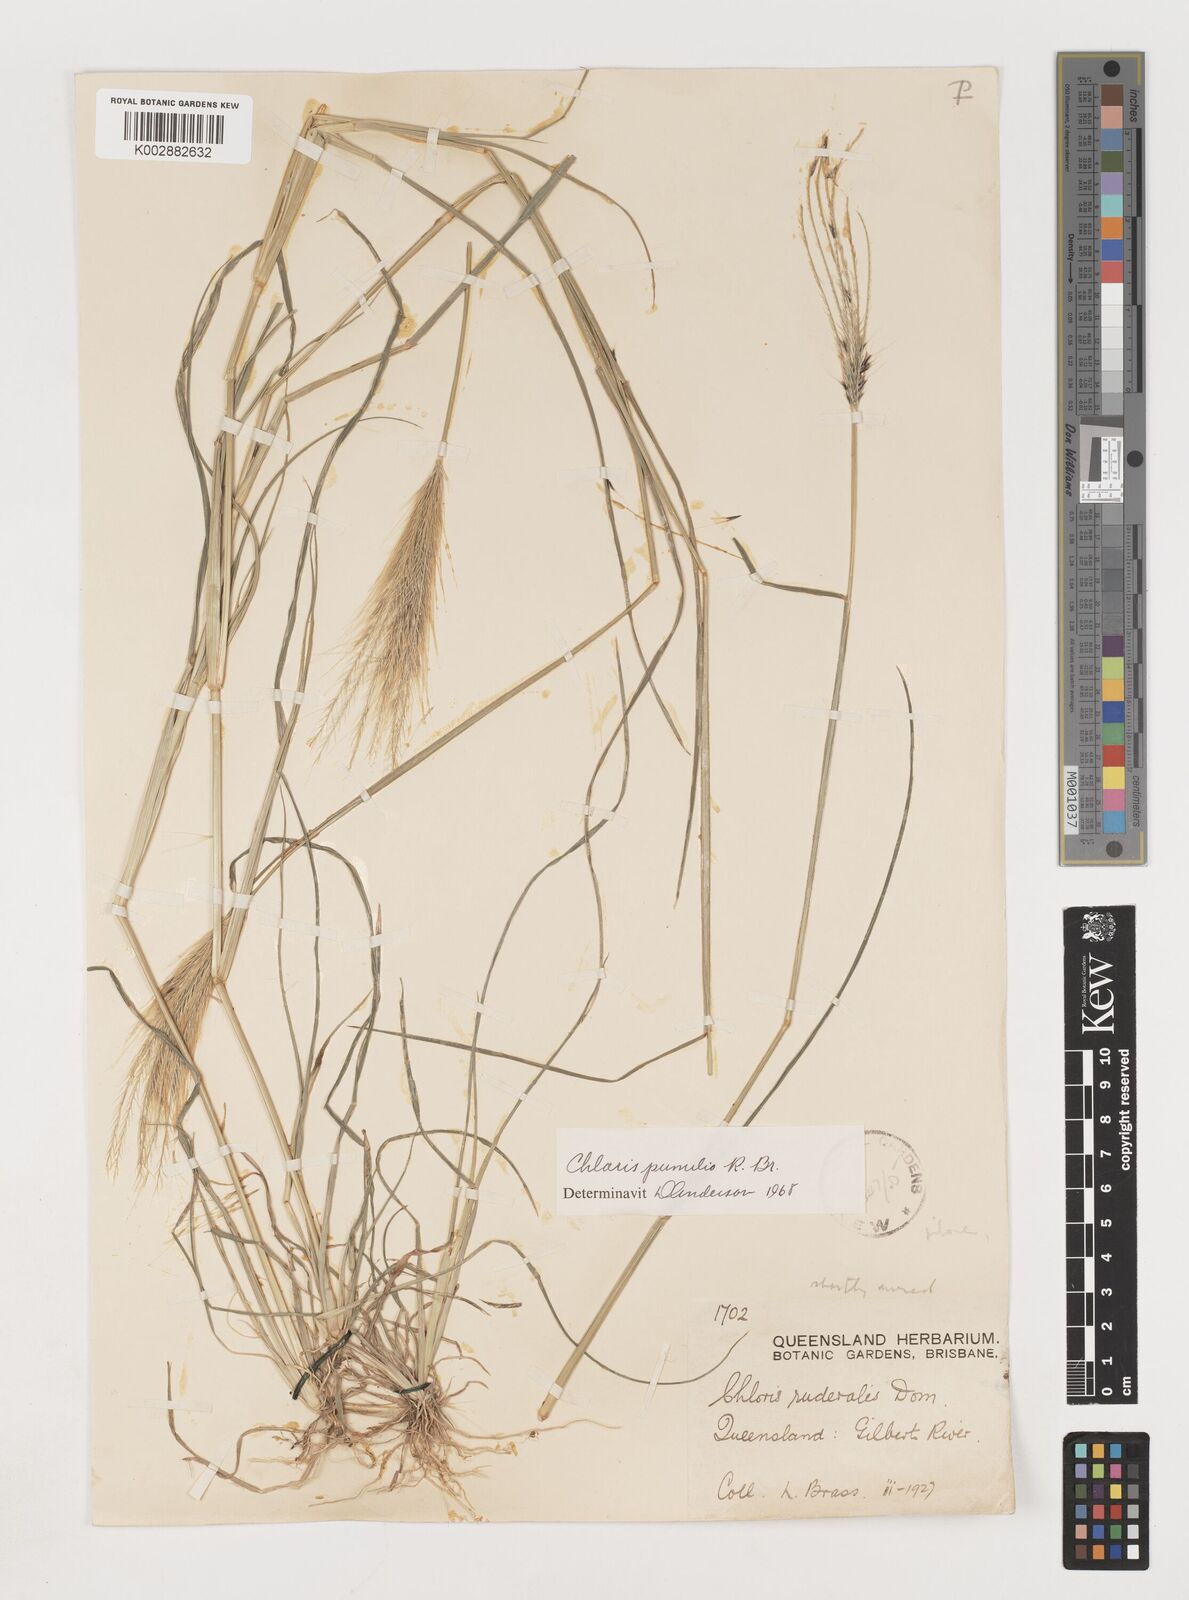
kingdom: Plantae
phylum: Tracheophyta
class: Liliopsida
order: Poales
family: Poaceae
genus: Chloris
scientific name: Chloris pumilio
